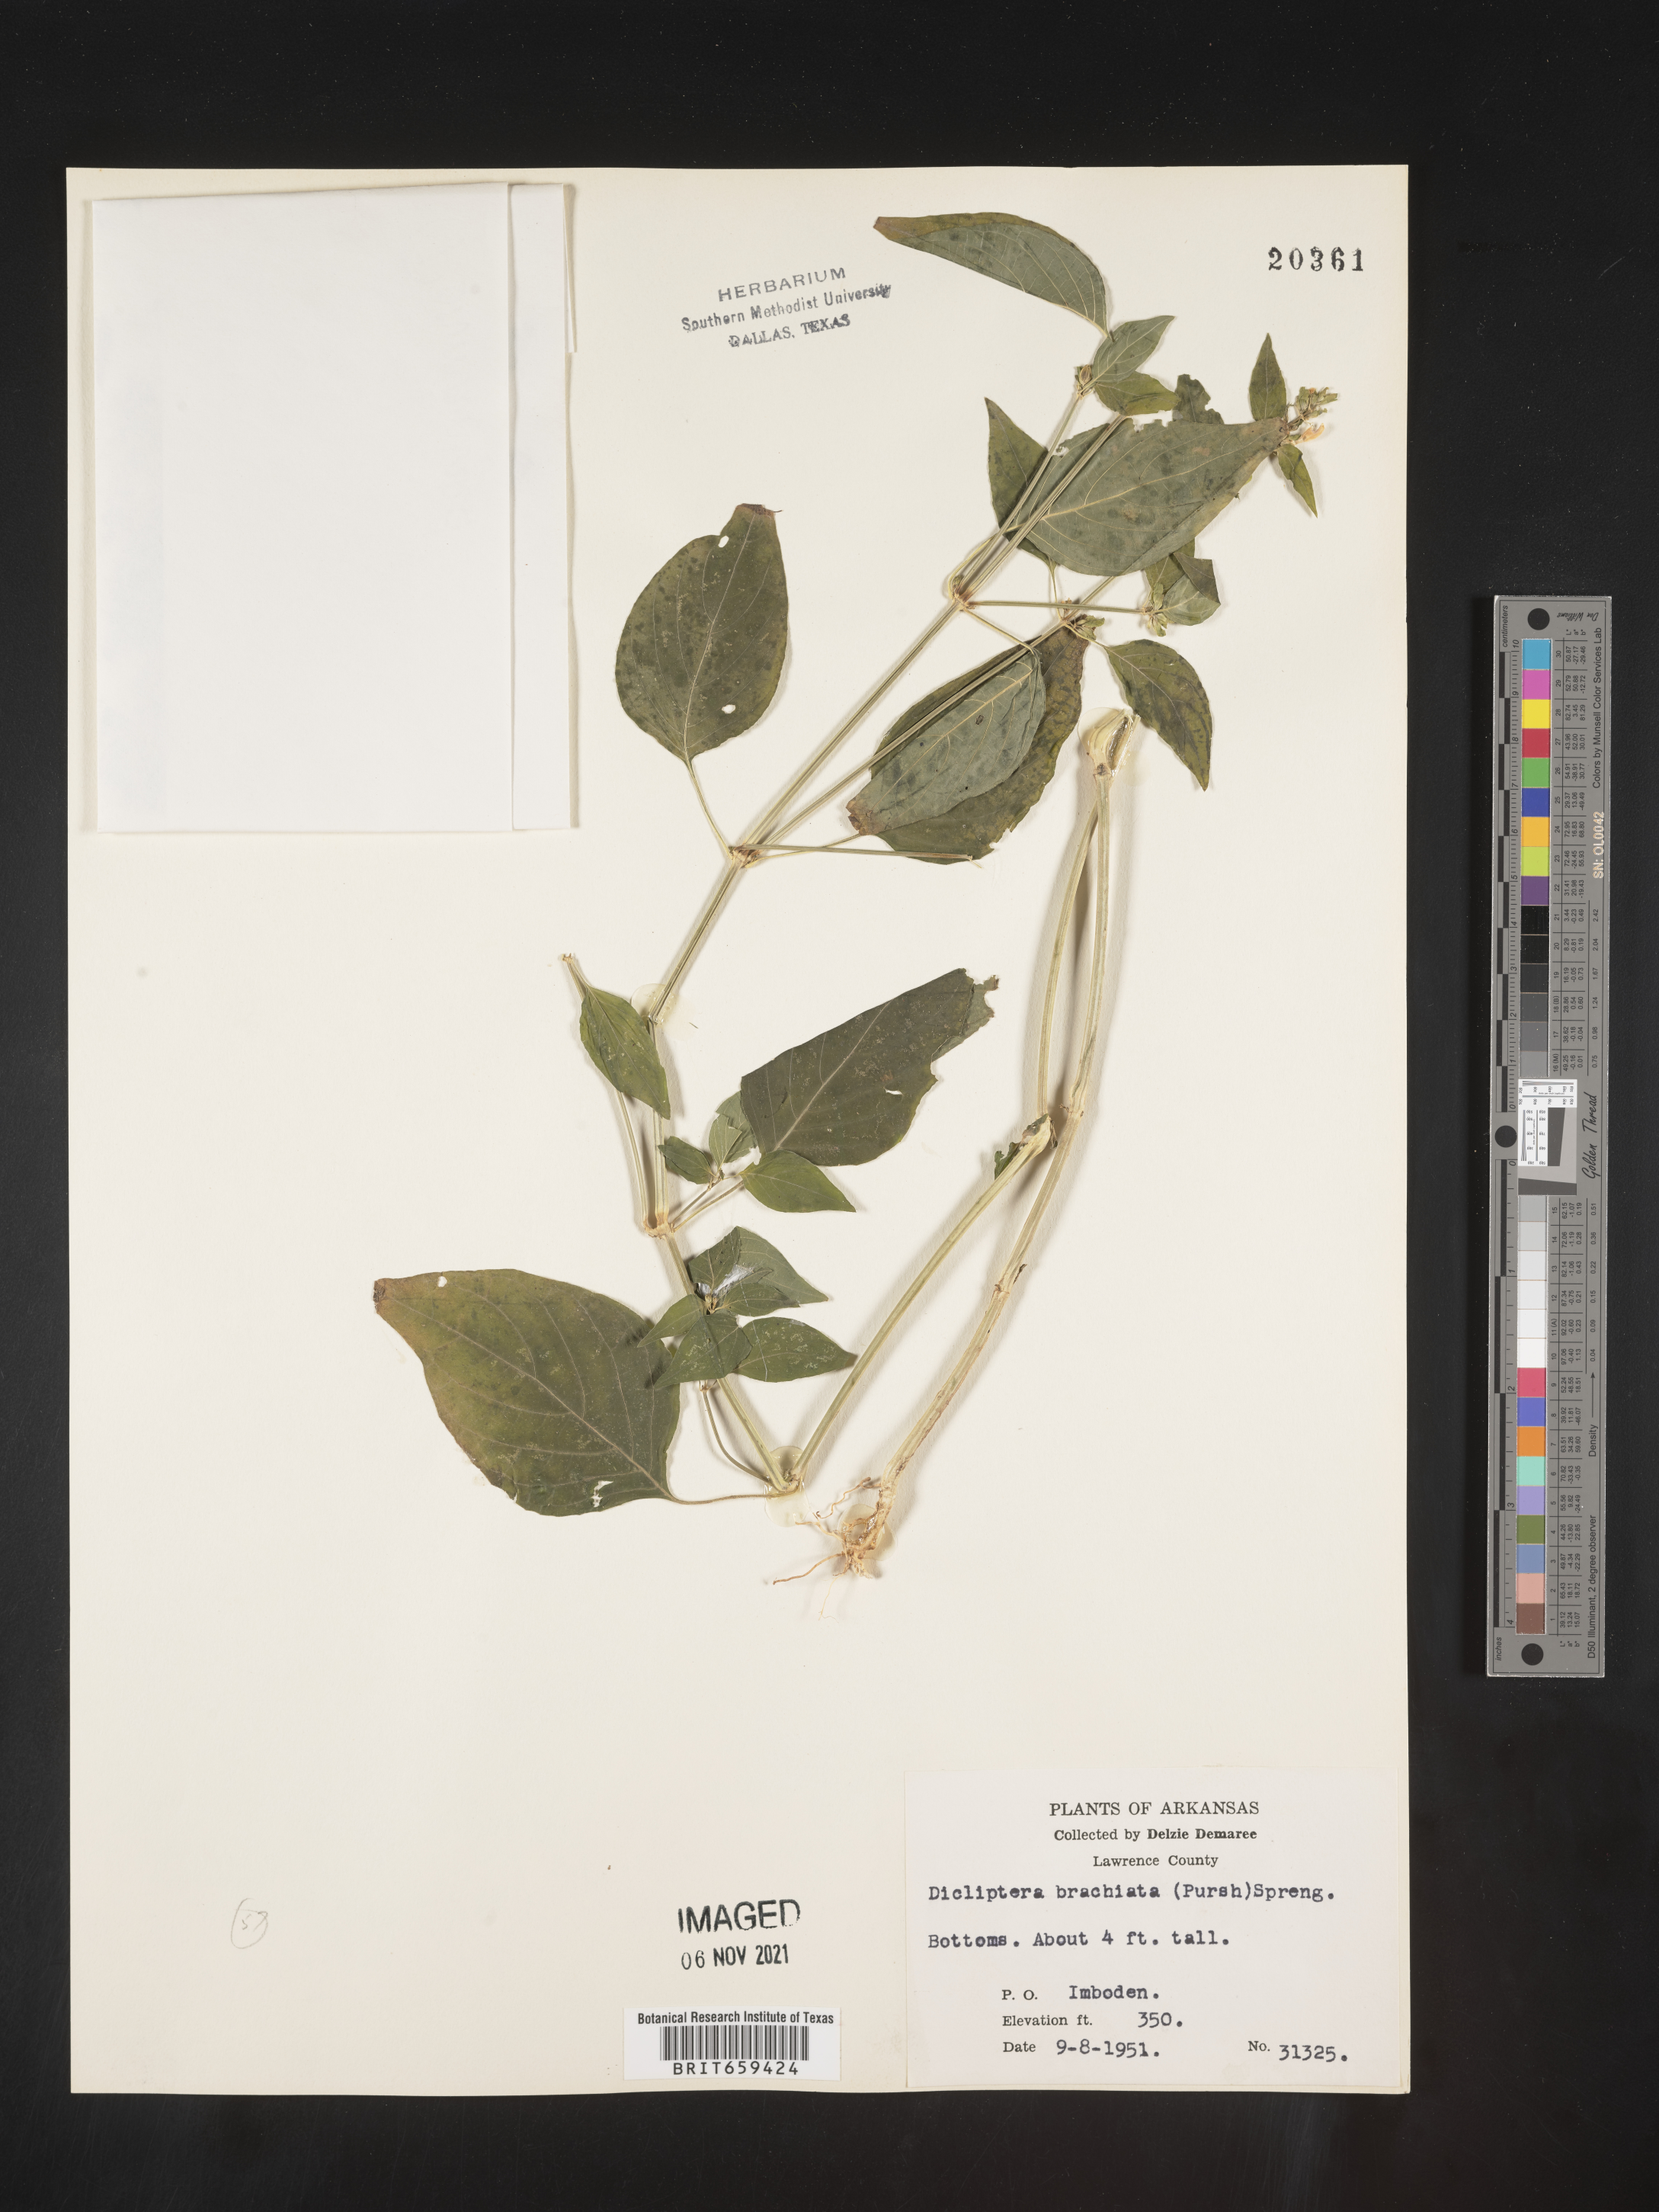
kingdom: Plantae
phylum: Tracheophyta
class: Magnoliopsida
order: Lamiales
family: Acanthaceae
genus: Dicliptera
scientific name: Dicliptera brachiata
